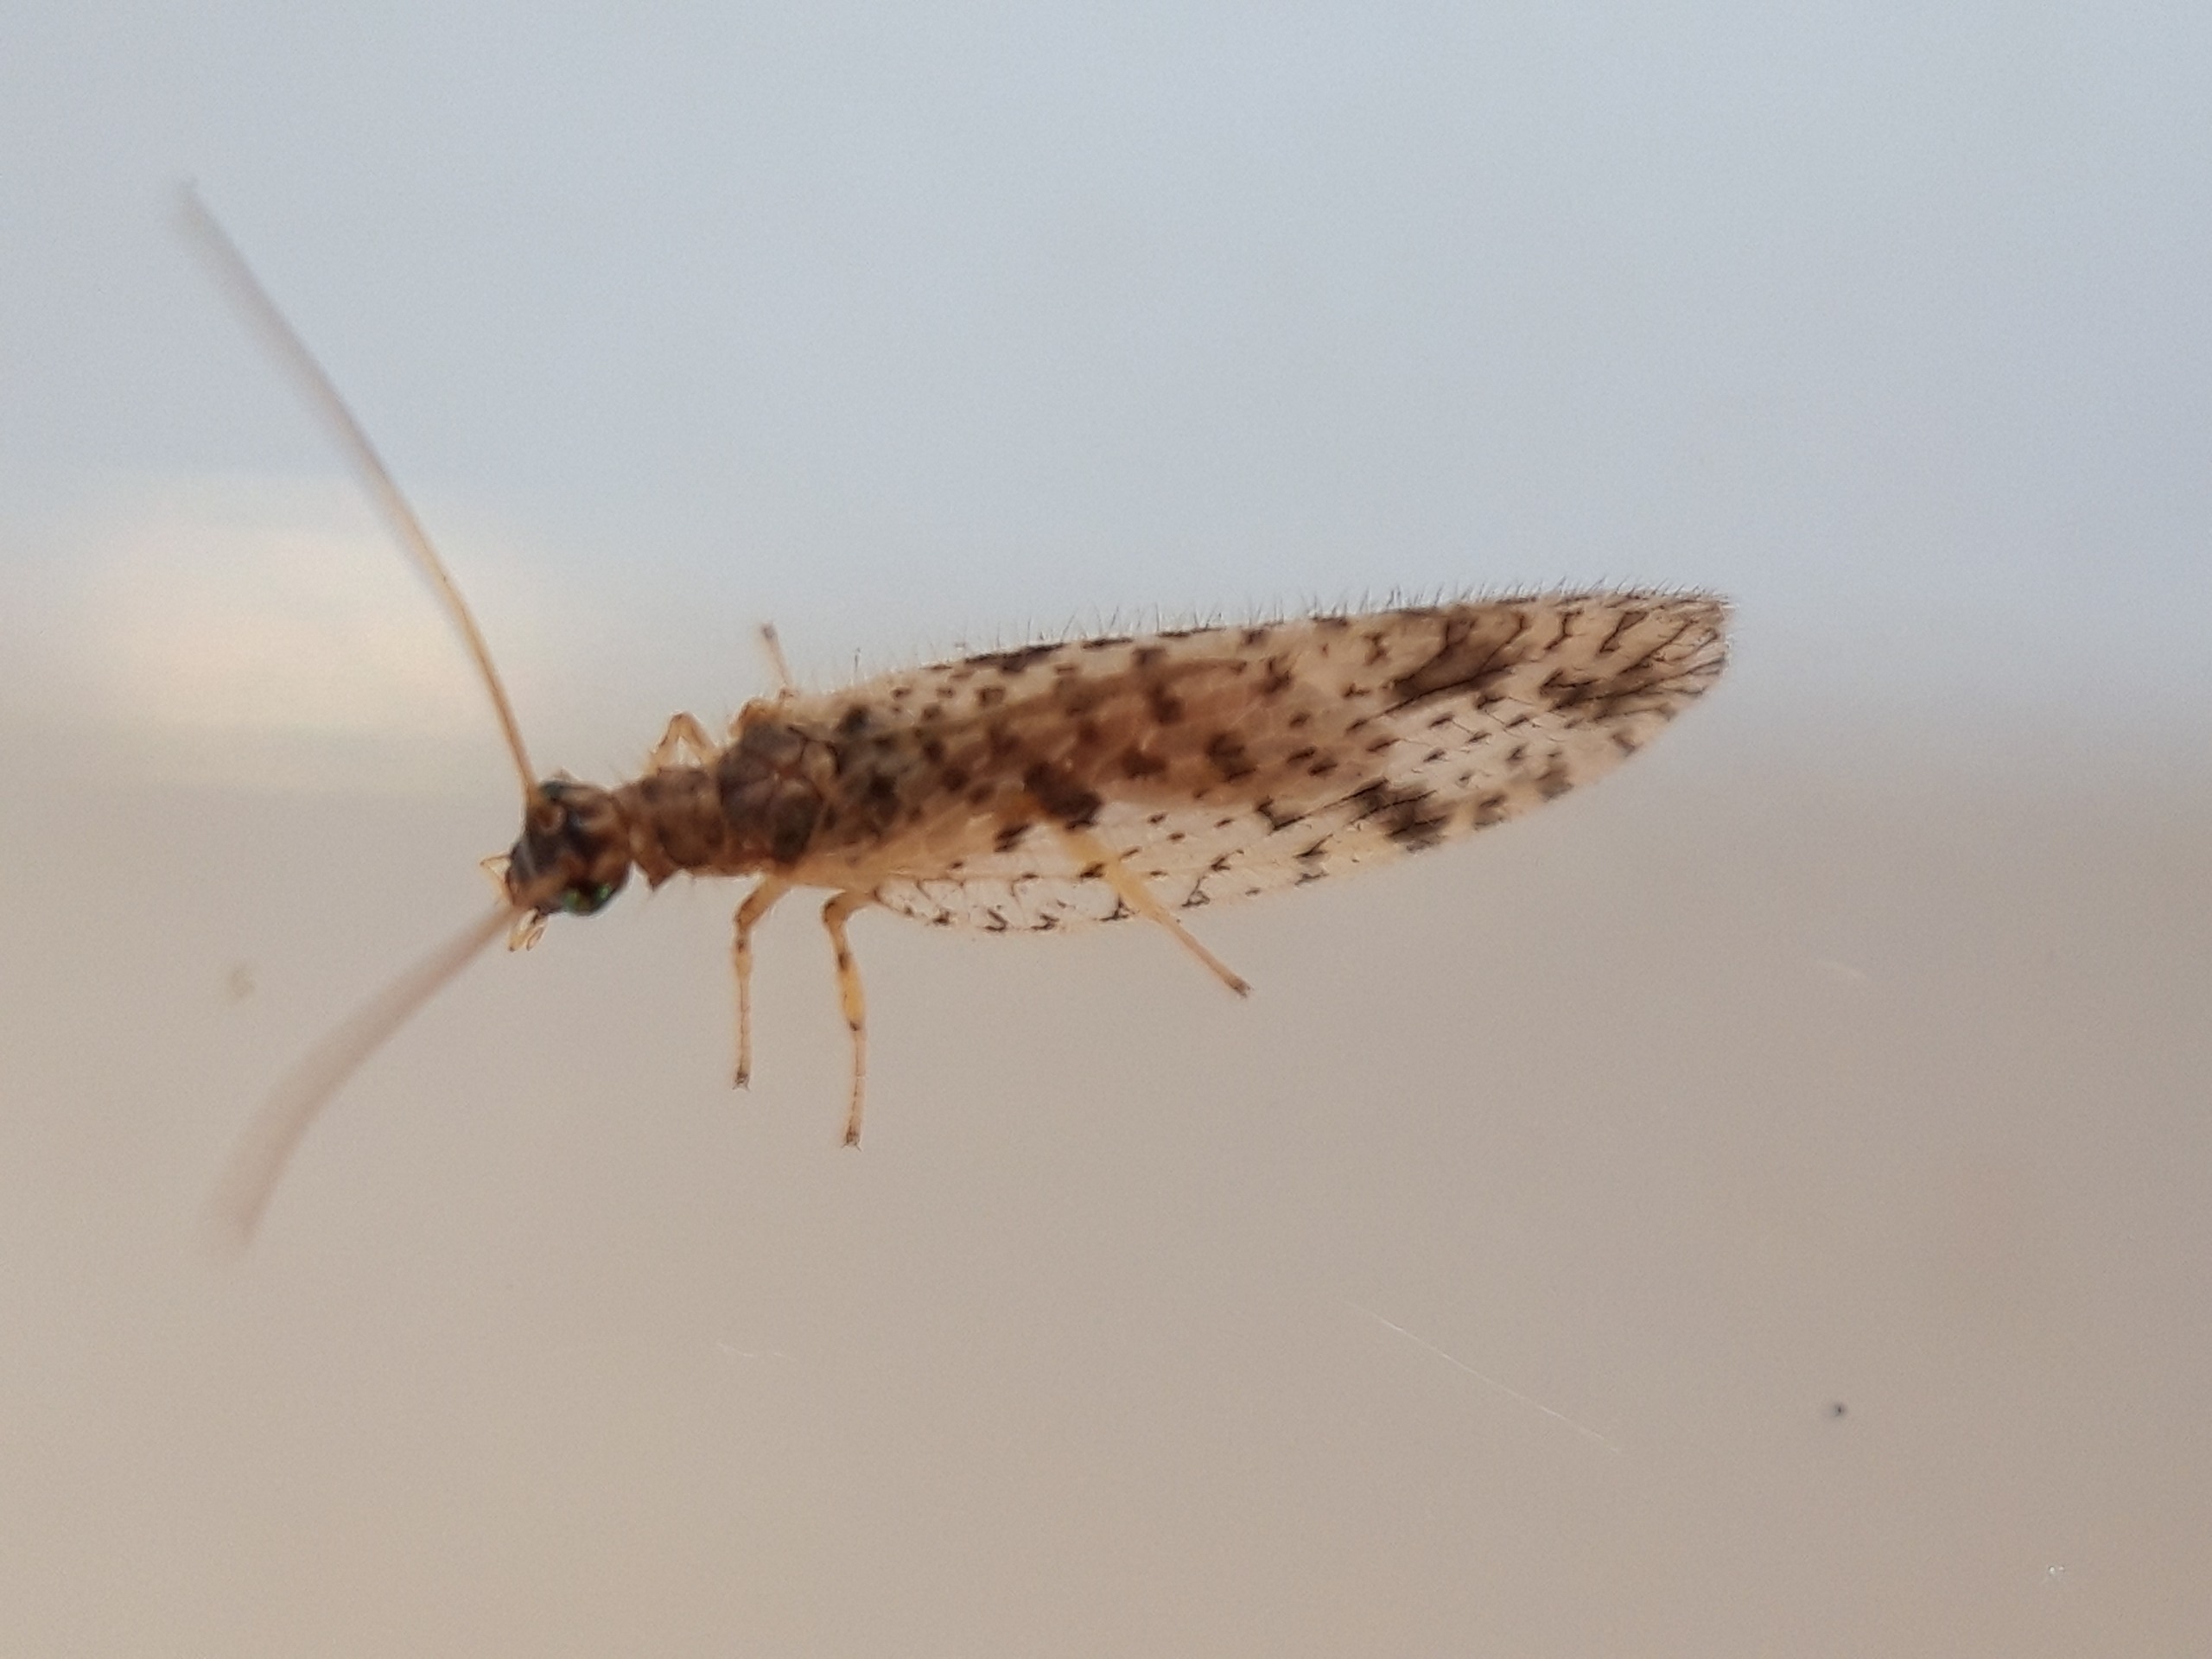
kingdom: Animalia
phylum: Arthropoda
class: Insecta
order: Neuroptera
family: Hemerobiidae
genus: Micromus
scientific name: Micromus variegatus
